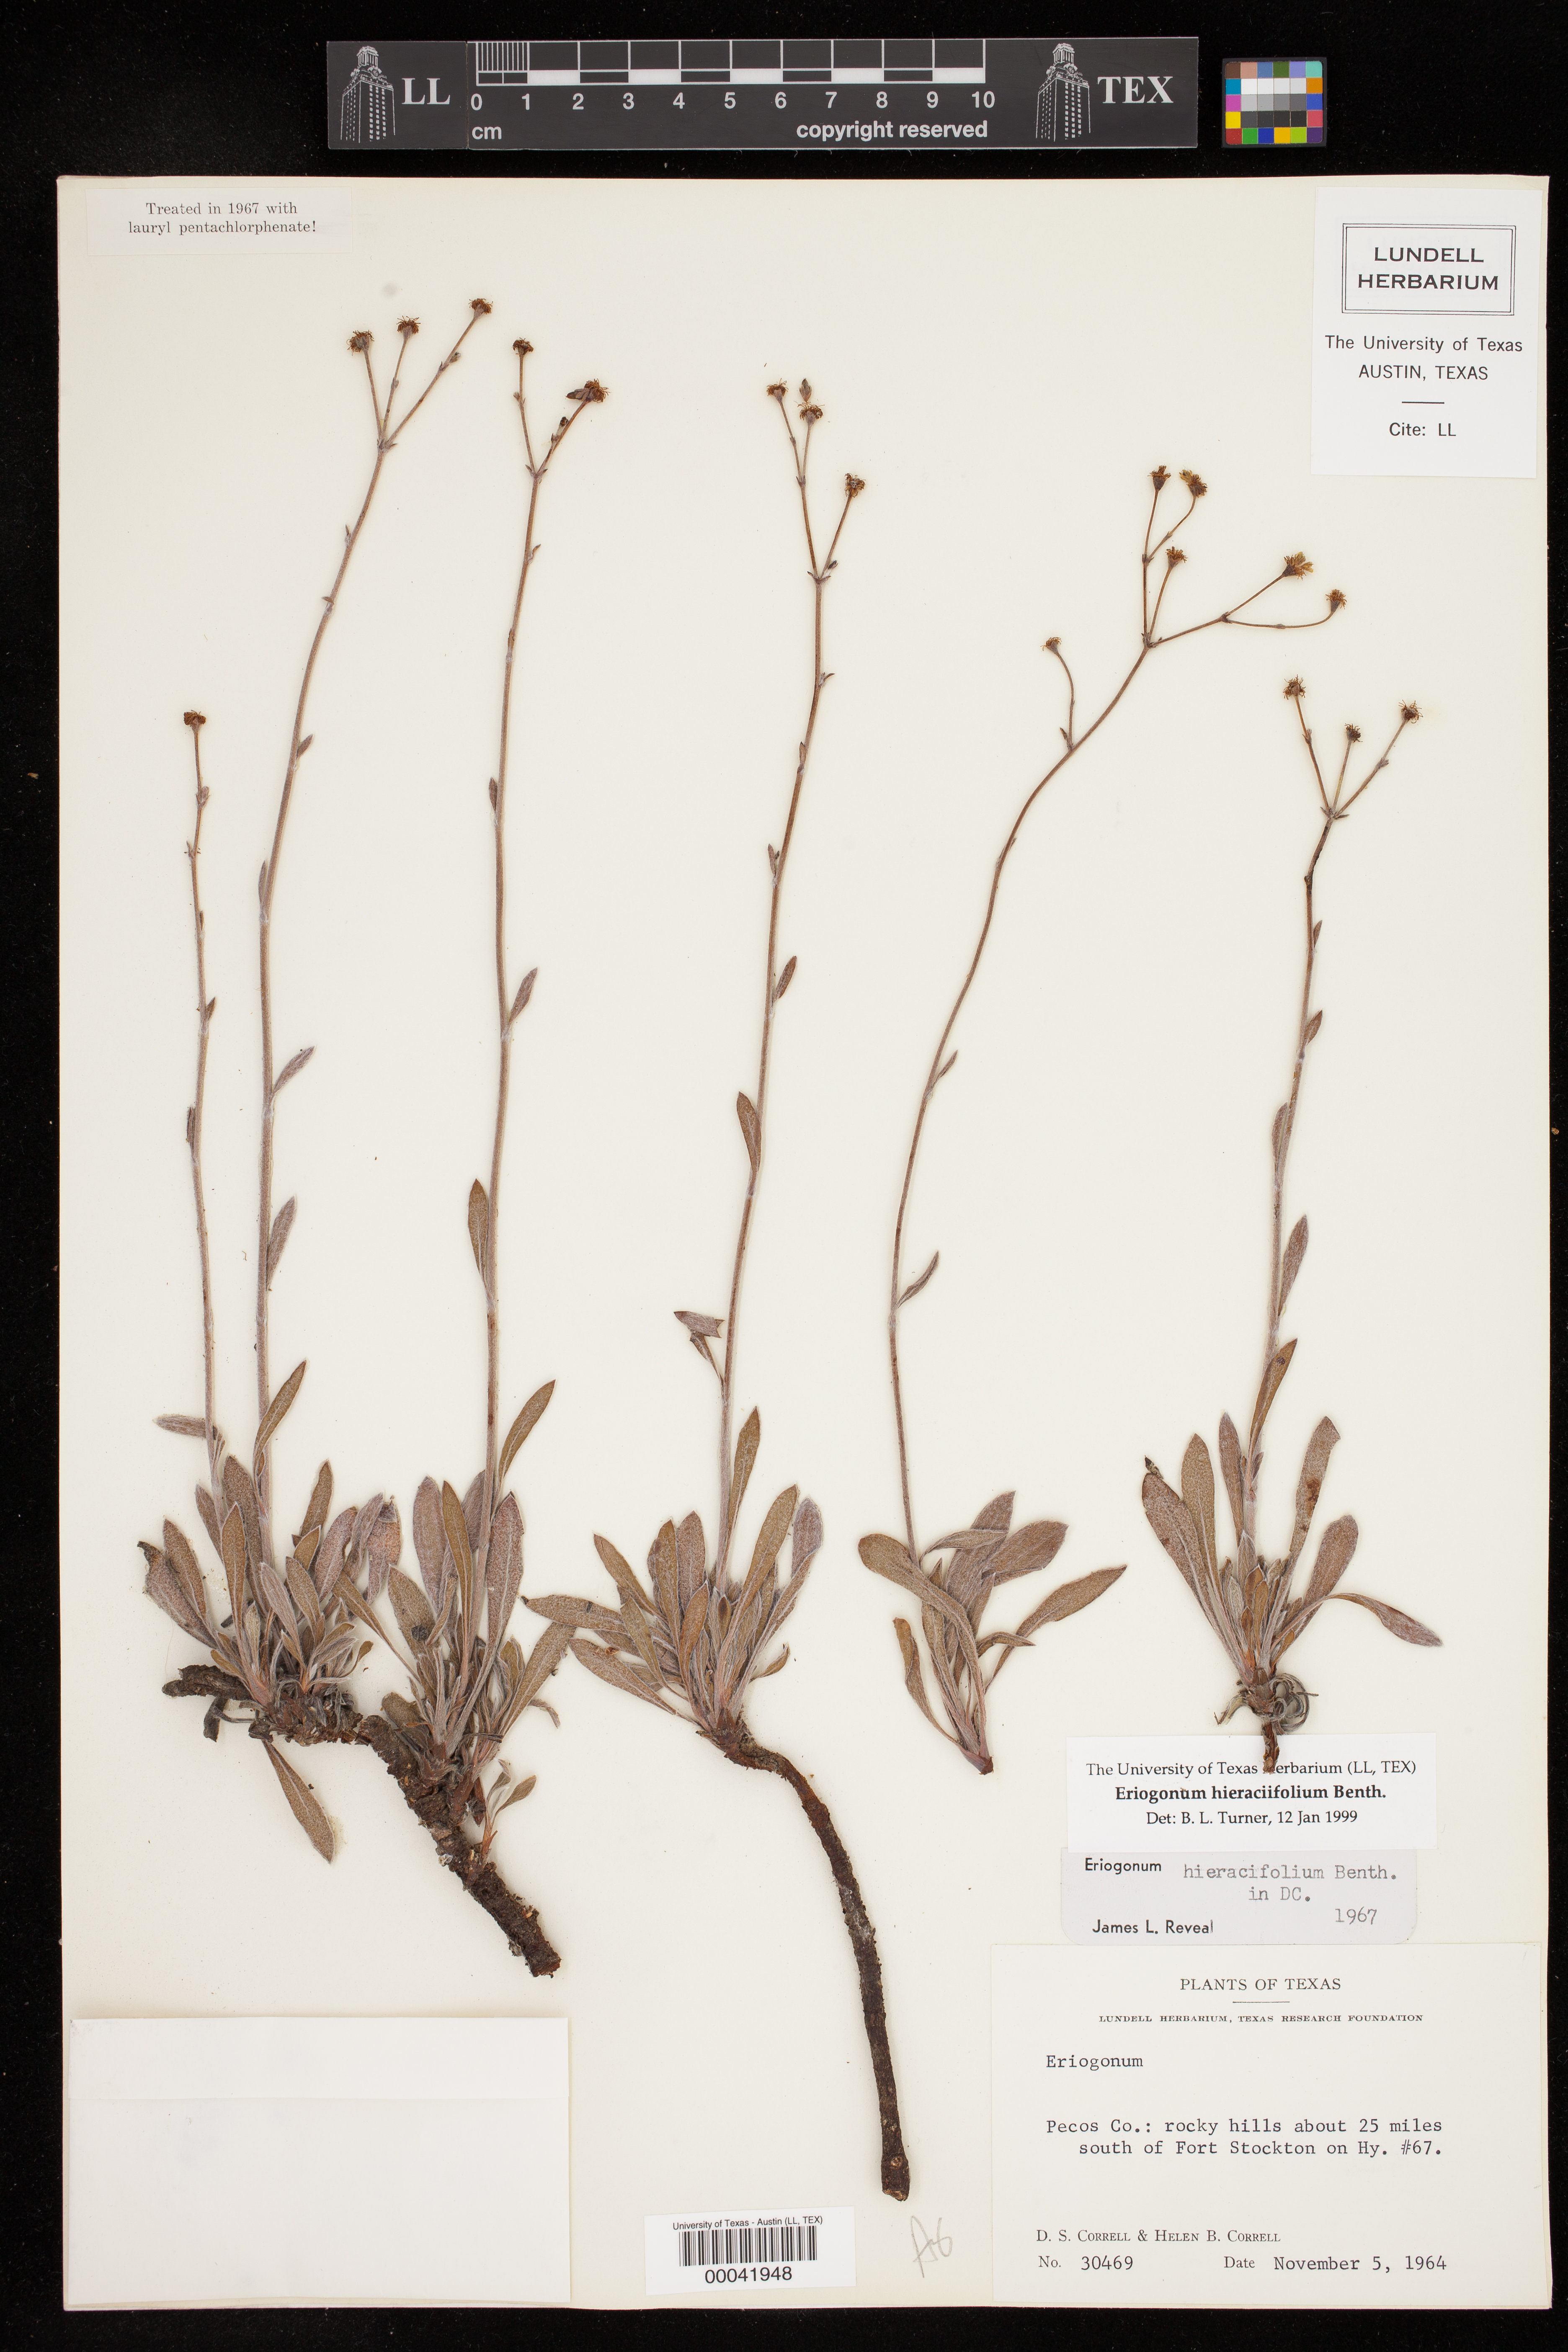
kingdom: Plantae
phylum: Tracheophyta
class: Magnoliopsida
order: Caryophyllales
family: Polygonaceae
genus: Eriogonum
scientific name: Eriogonum hieraciifolium
